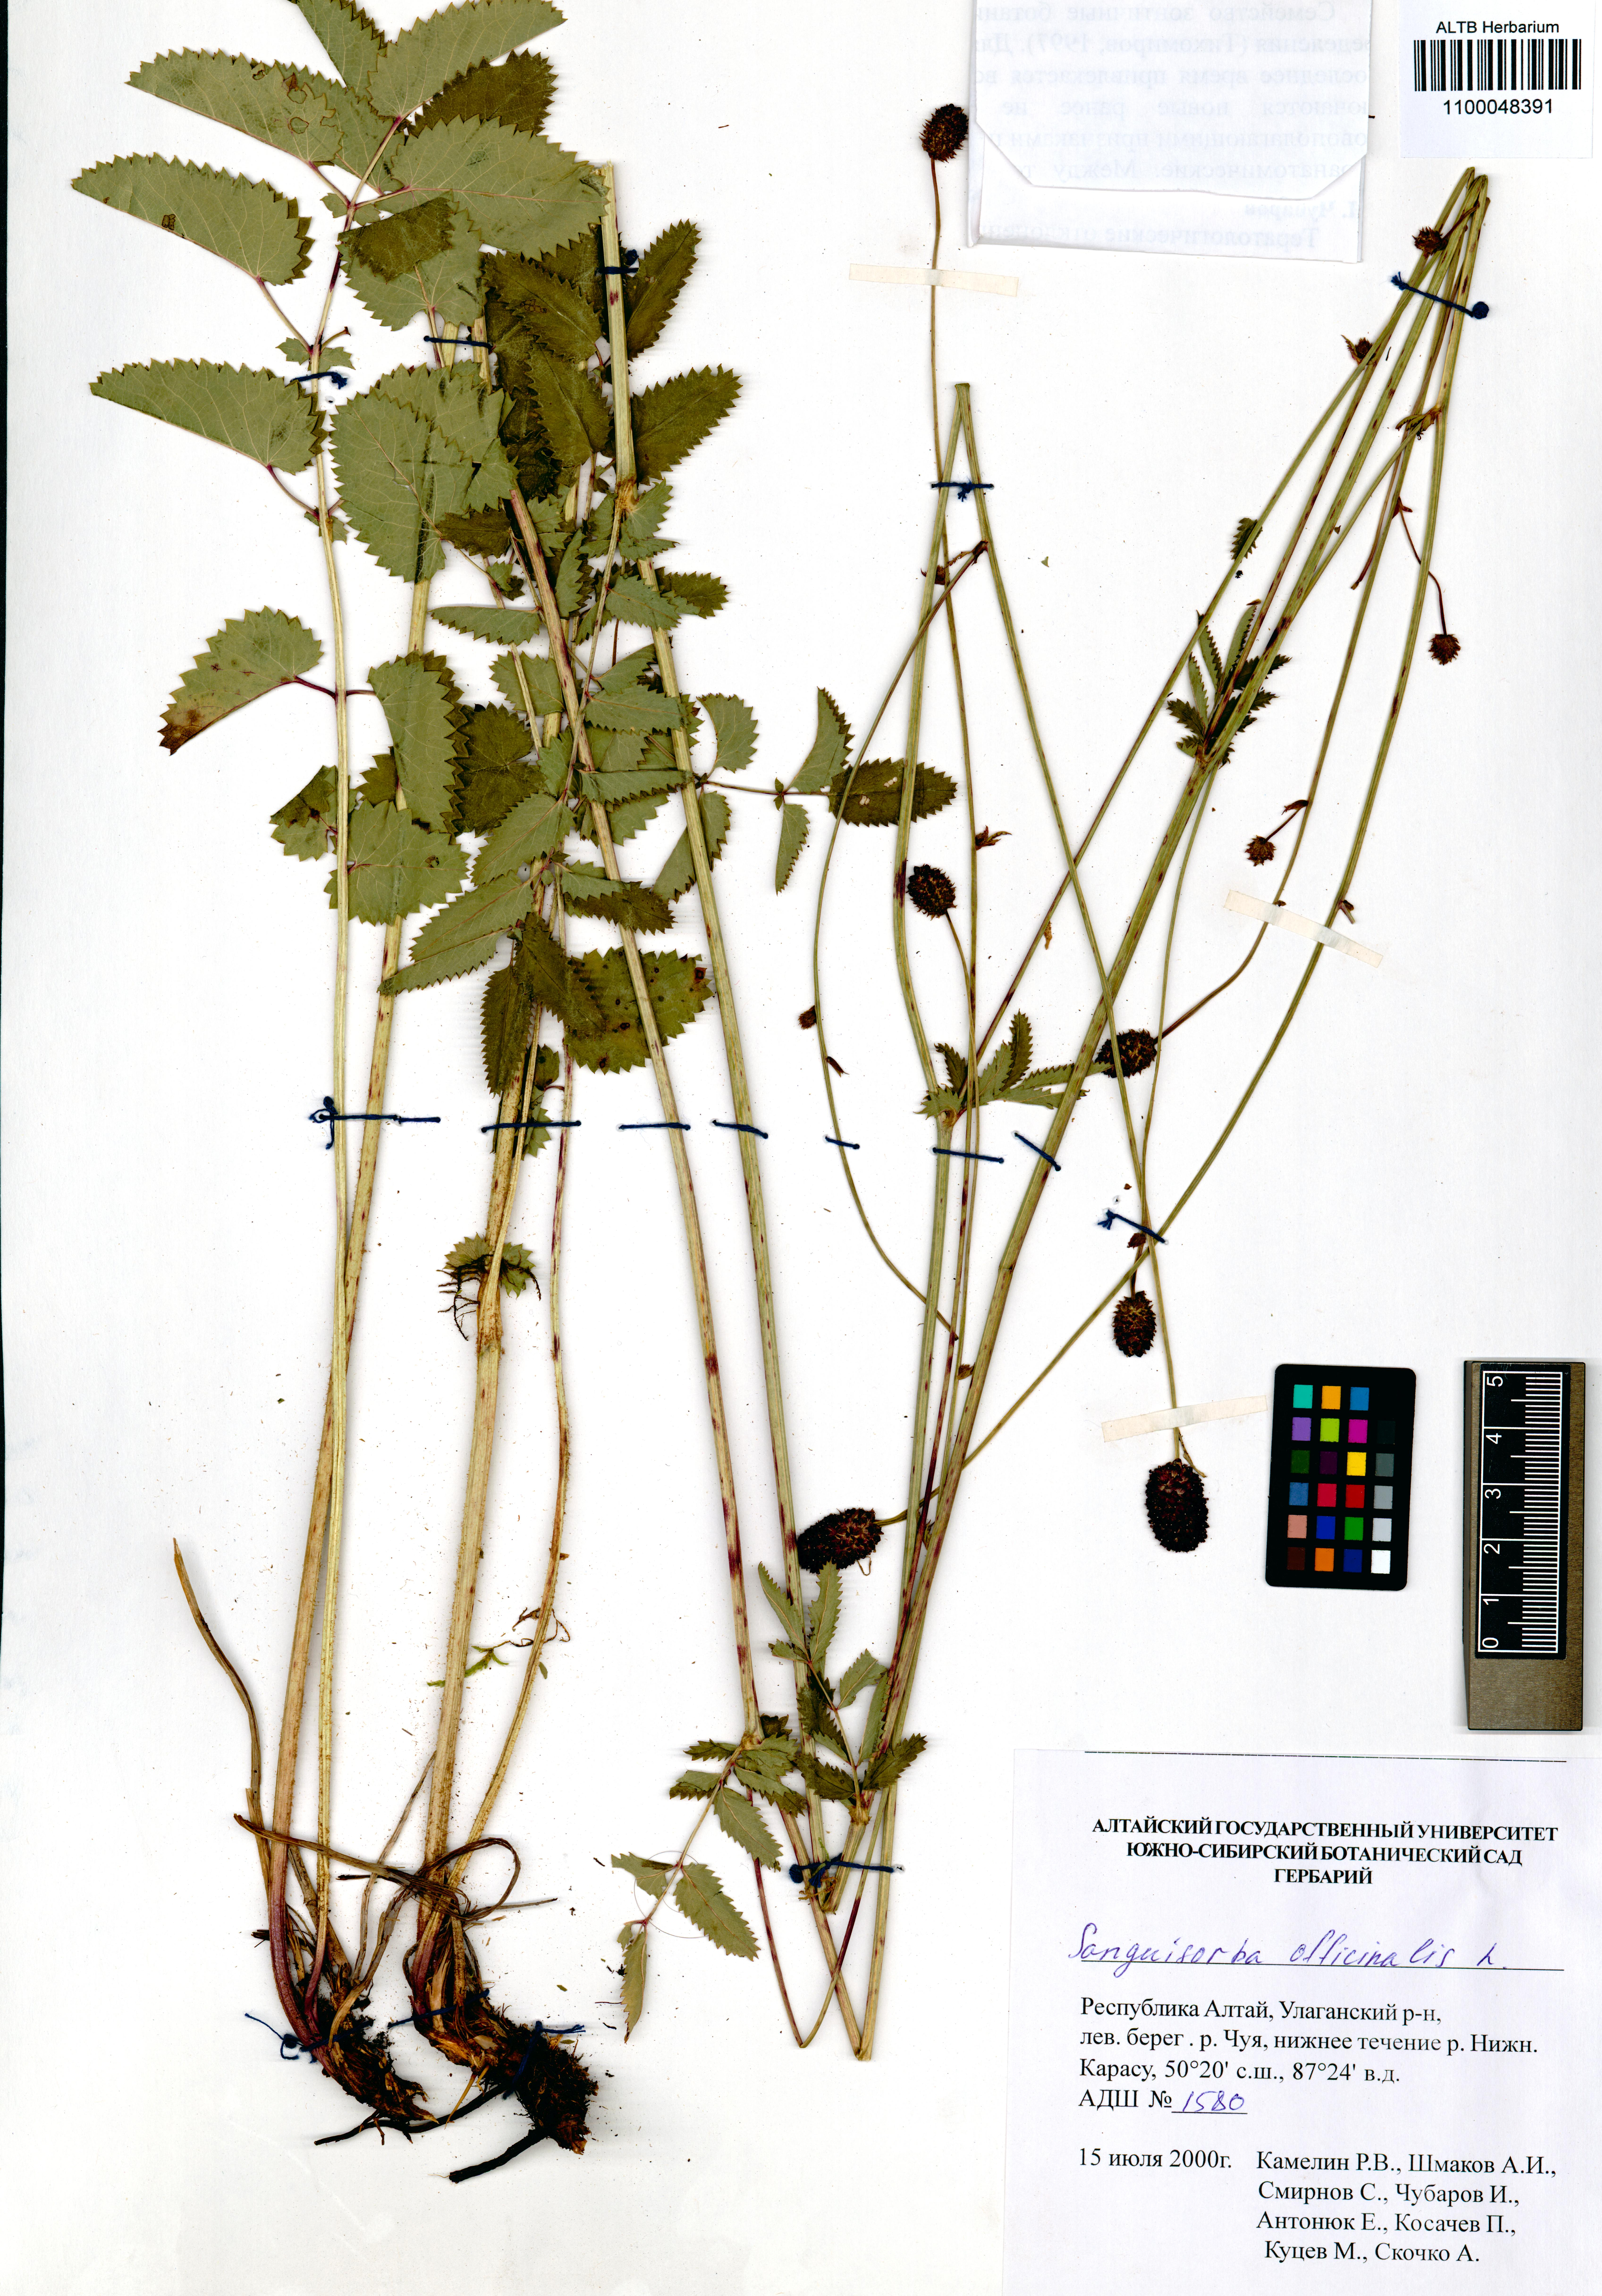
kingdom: Plantae
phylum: Tracheophyta
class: Magnoliopsida
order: Rosales
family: Rosaceae
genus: Sanguisorba
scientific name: Sanguisorba officinalis
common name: Great burnet
